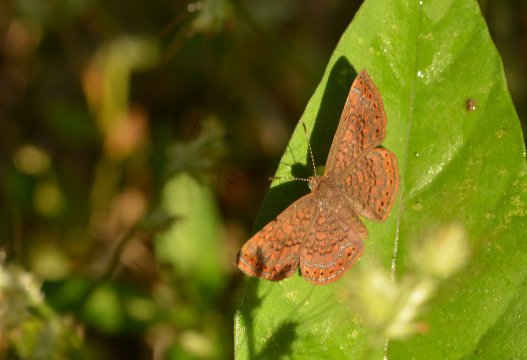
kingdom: Animalia
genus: Calephelis
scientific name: Calephelis
